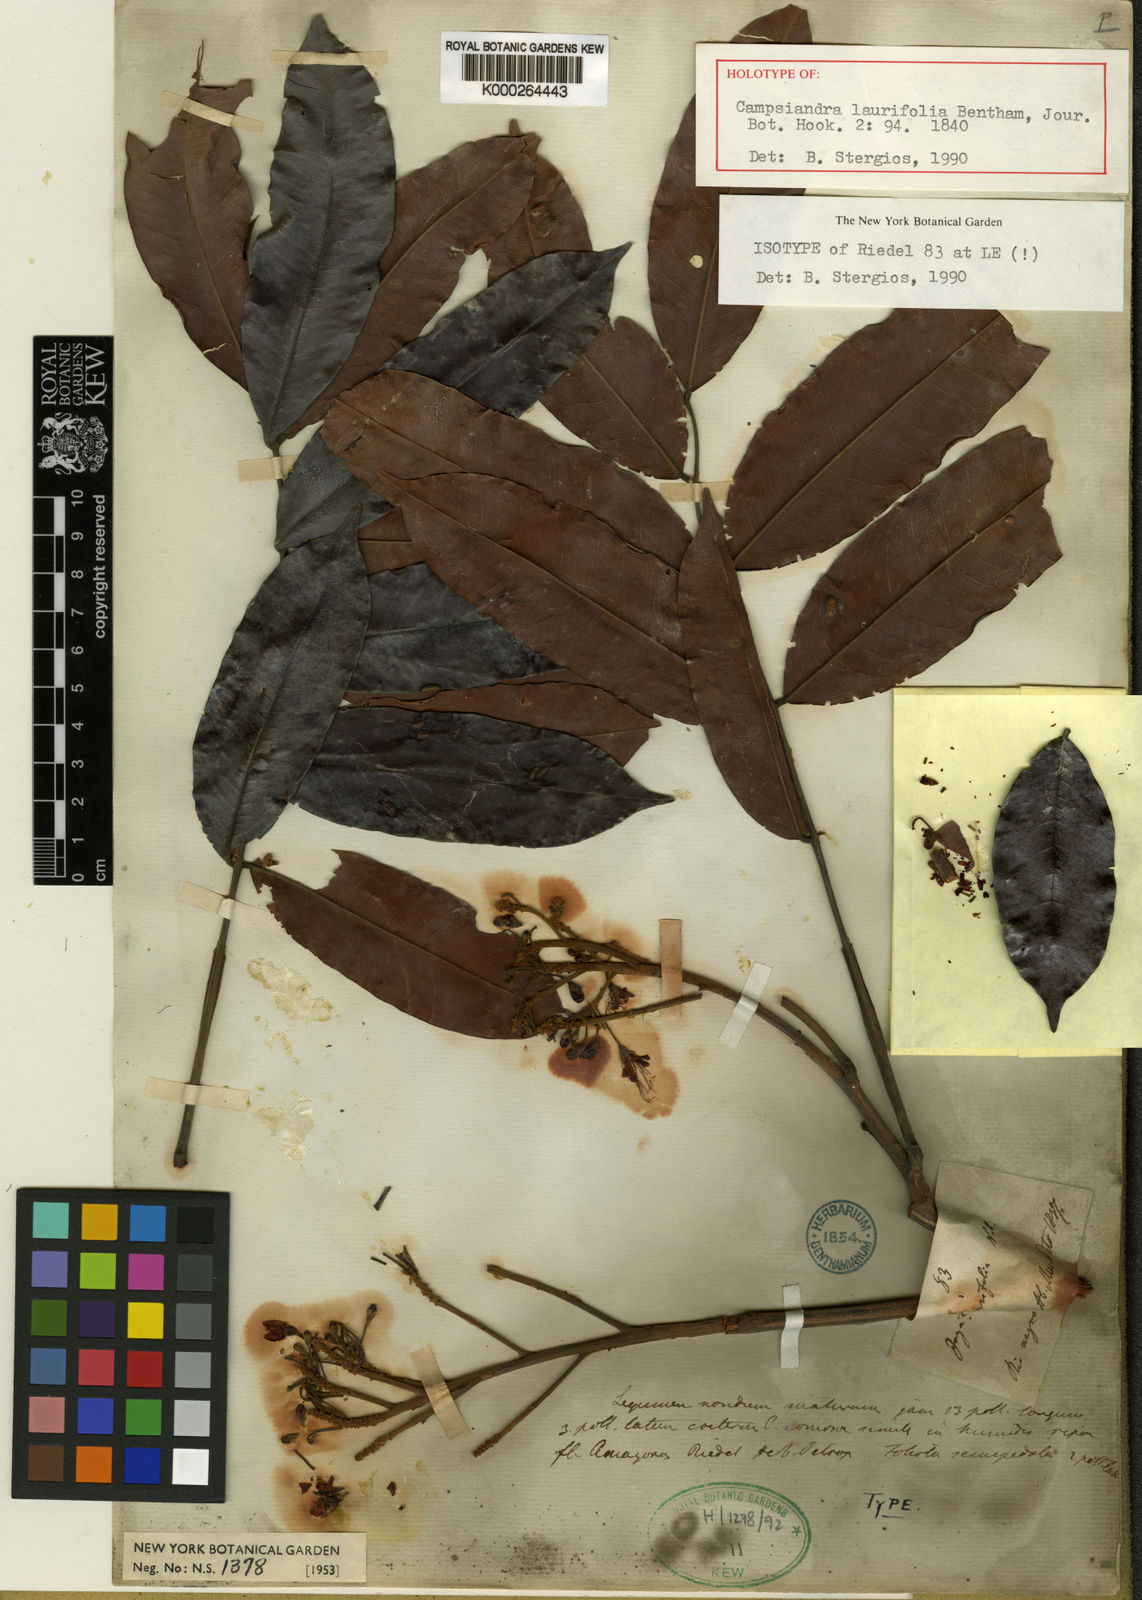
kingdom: Plantae
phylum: Tracheophyta
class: Magnoliopsida
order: Fabales
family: Fabaceae
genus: Campsiandra
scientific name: Campsiandra laurifolia
